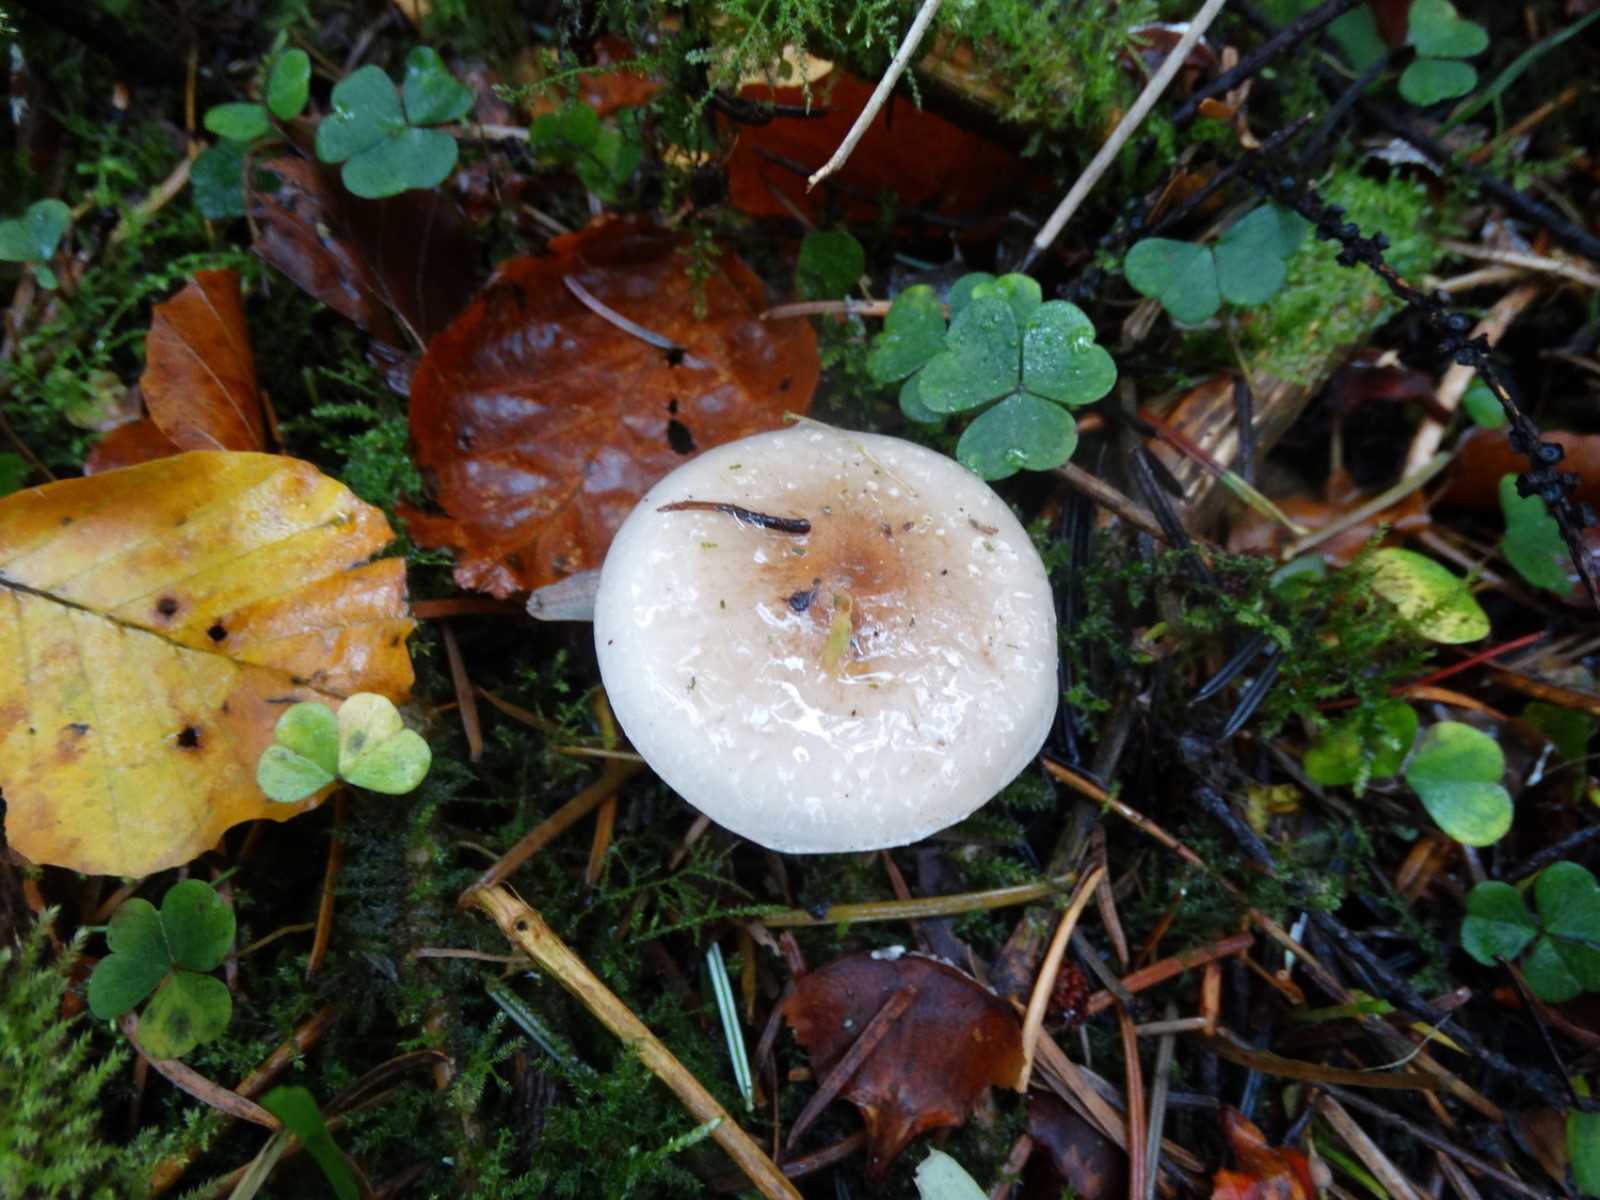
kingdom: Fungi
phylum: Basidiomycota
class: Agaricomycetes
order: Agaricales
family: Strophariaceae
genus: Pholiota
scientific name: Pholiota lenta
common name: løv-skælhat
